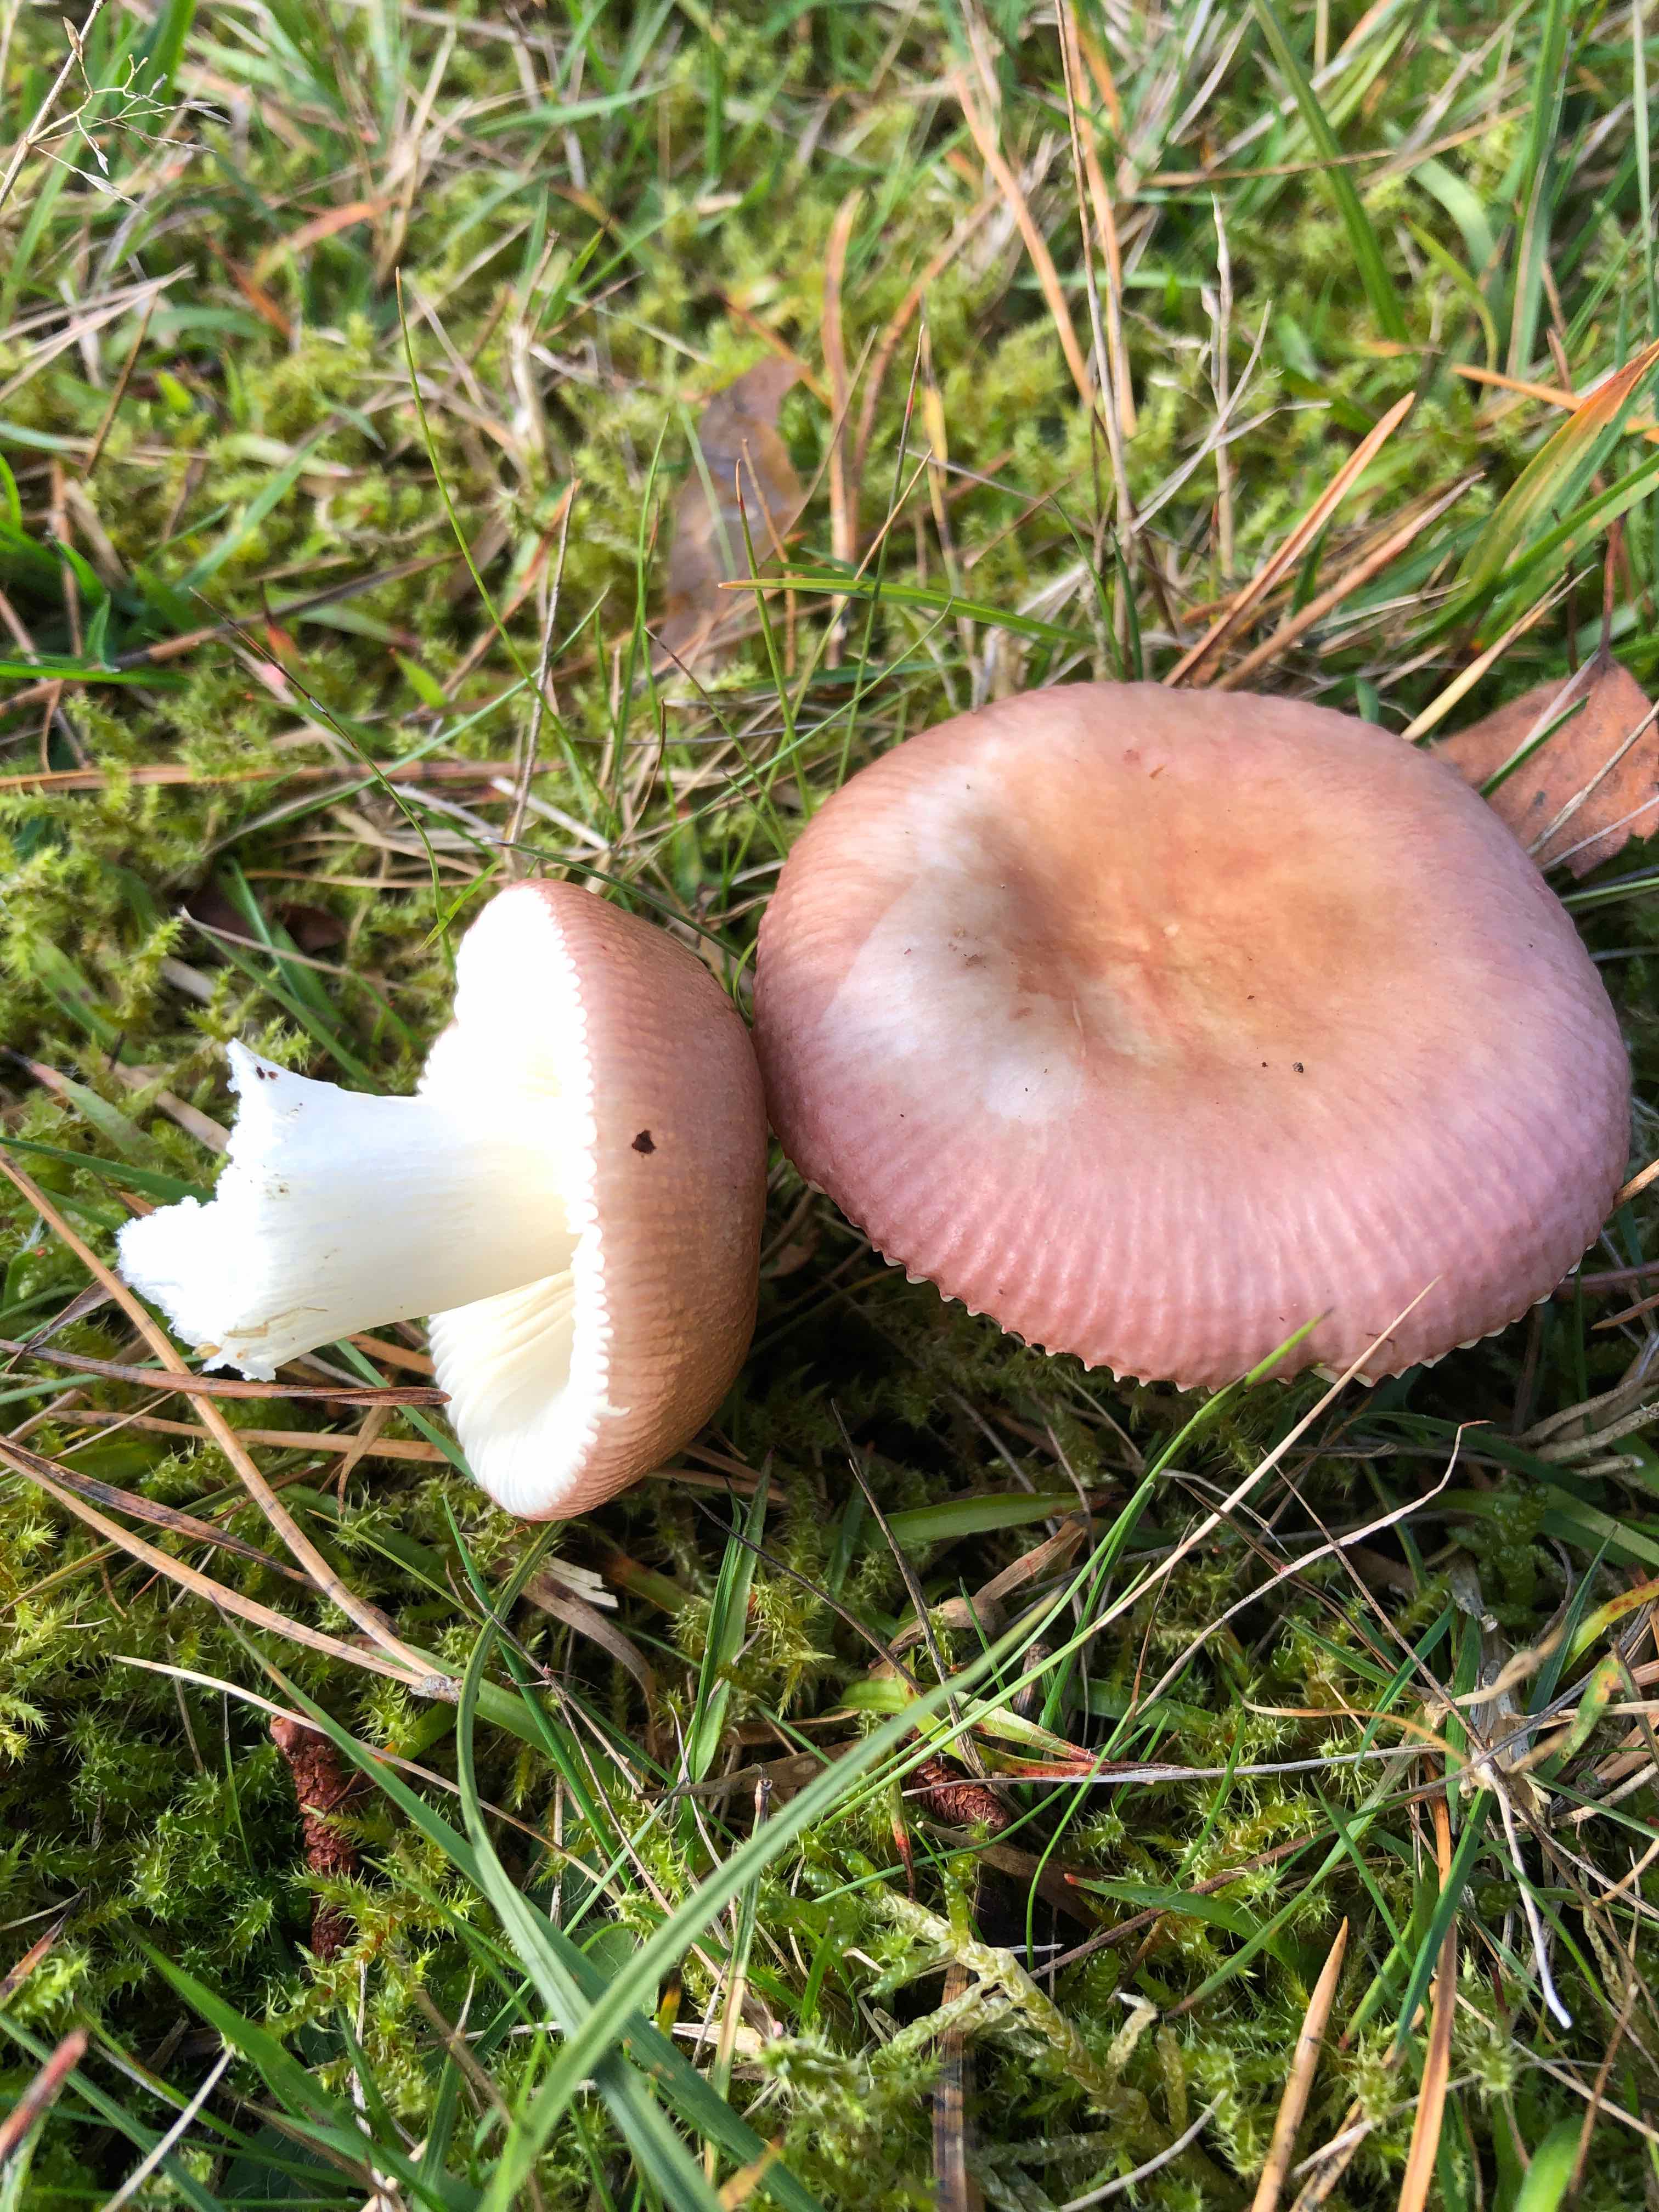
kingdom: Fungi
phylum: Basidiomycota
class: Agaricomycetes
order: Russulales
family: Russulaceae
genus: Russula
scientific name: Russula
